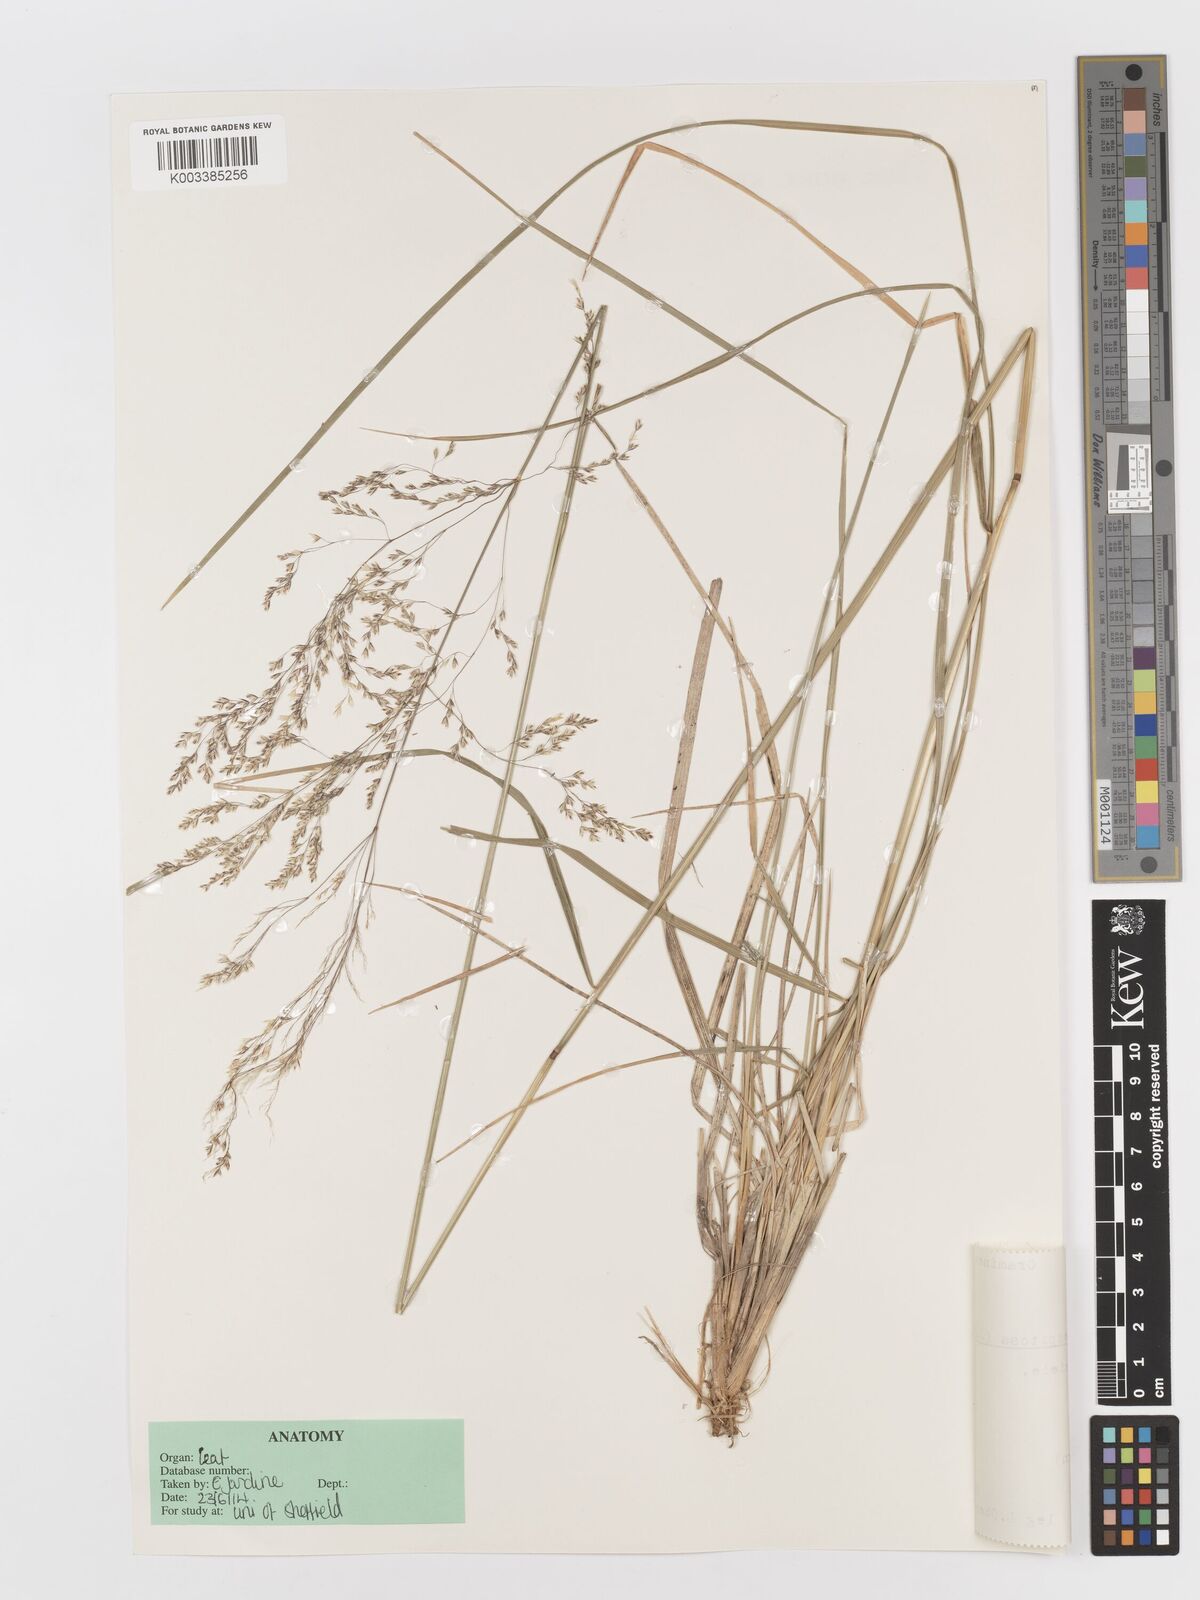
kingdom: Plantae
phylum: Tracheophyta
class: Liliopsida
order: Poales
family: Poaceae
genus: Deschampsia
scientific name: Deschampsia cespitosa
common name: Tufted hair-grass
